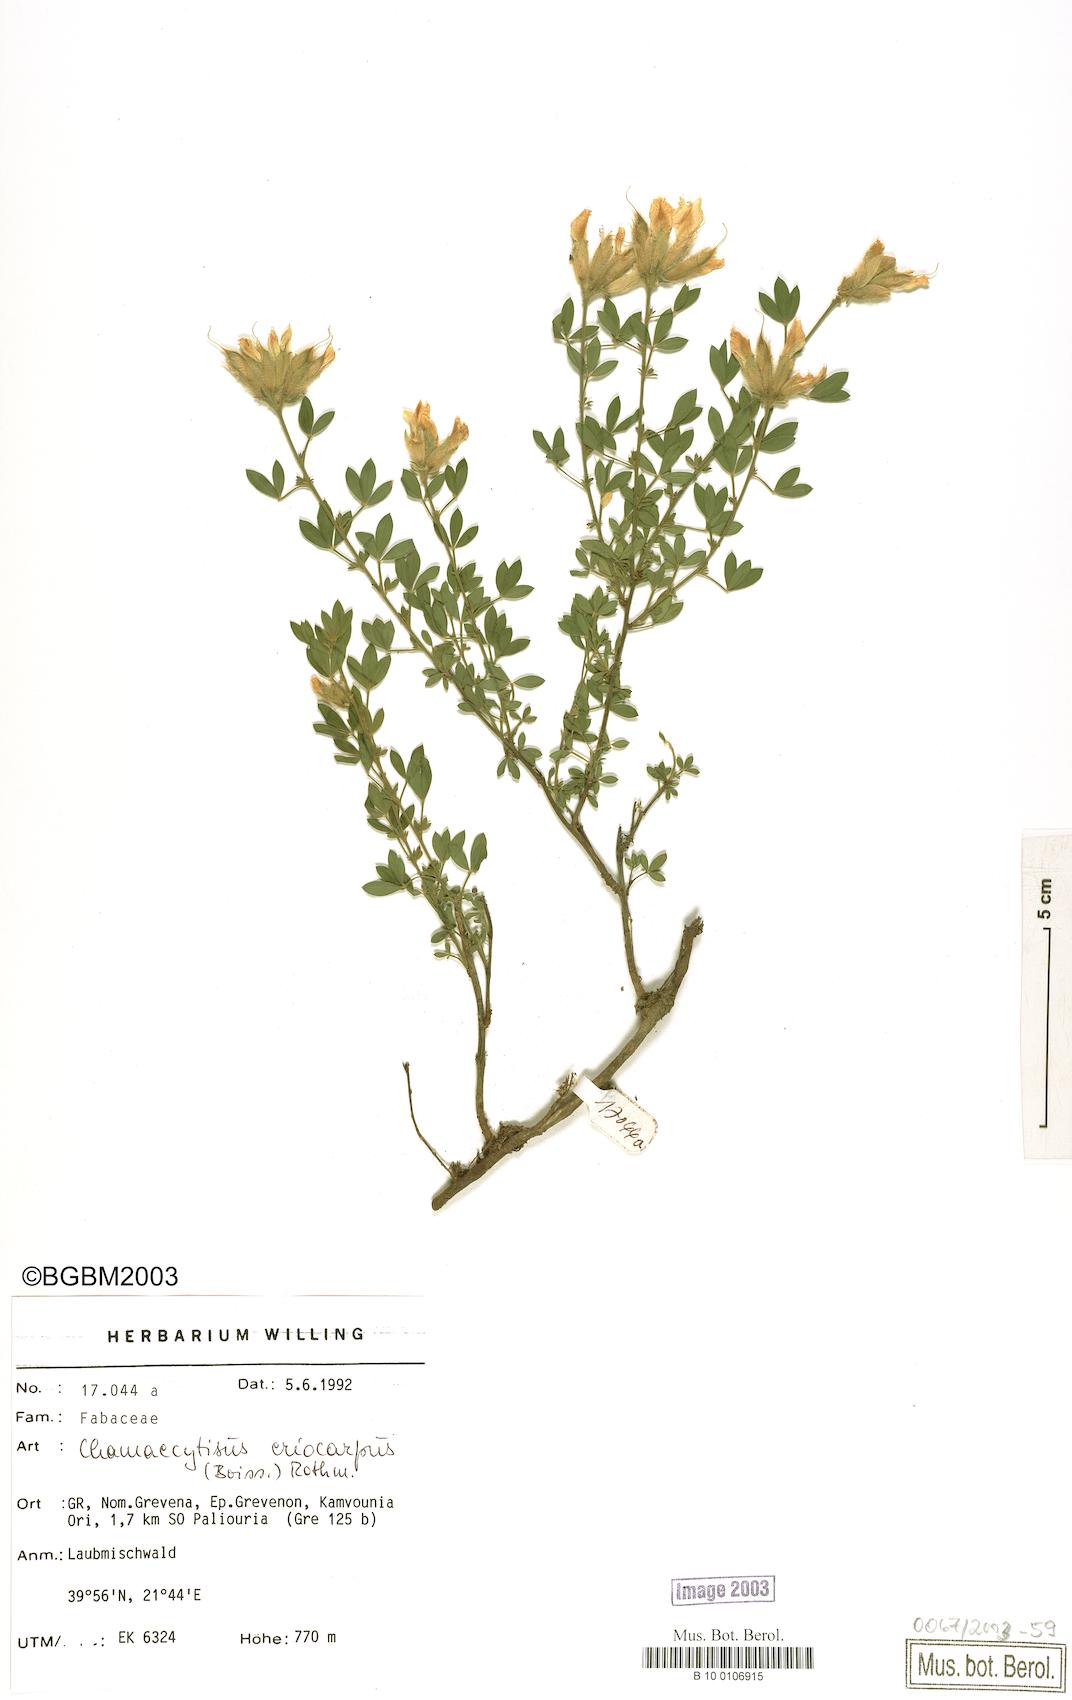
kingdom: Plantae
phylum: Tracheophyta
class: Magnoliopsida
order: Fabales
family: Fabaceae
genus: Chamaecytisus
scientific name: Chamaecytisus eriocarpus
